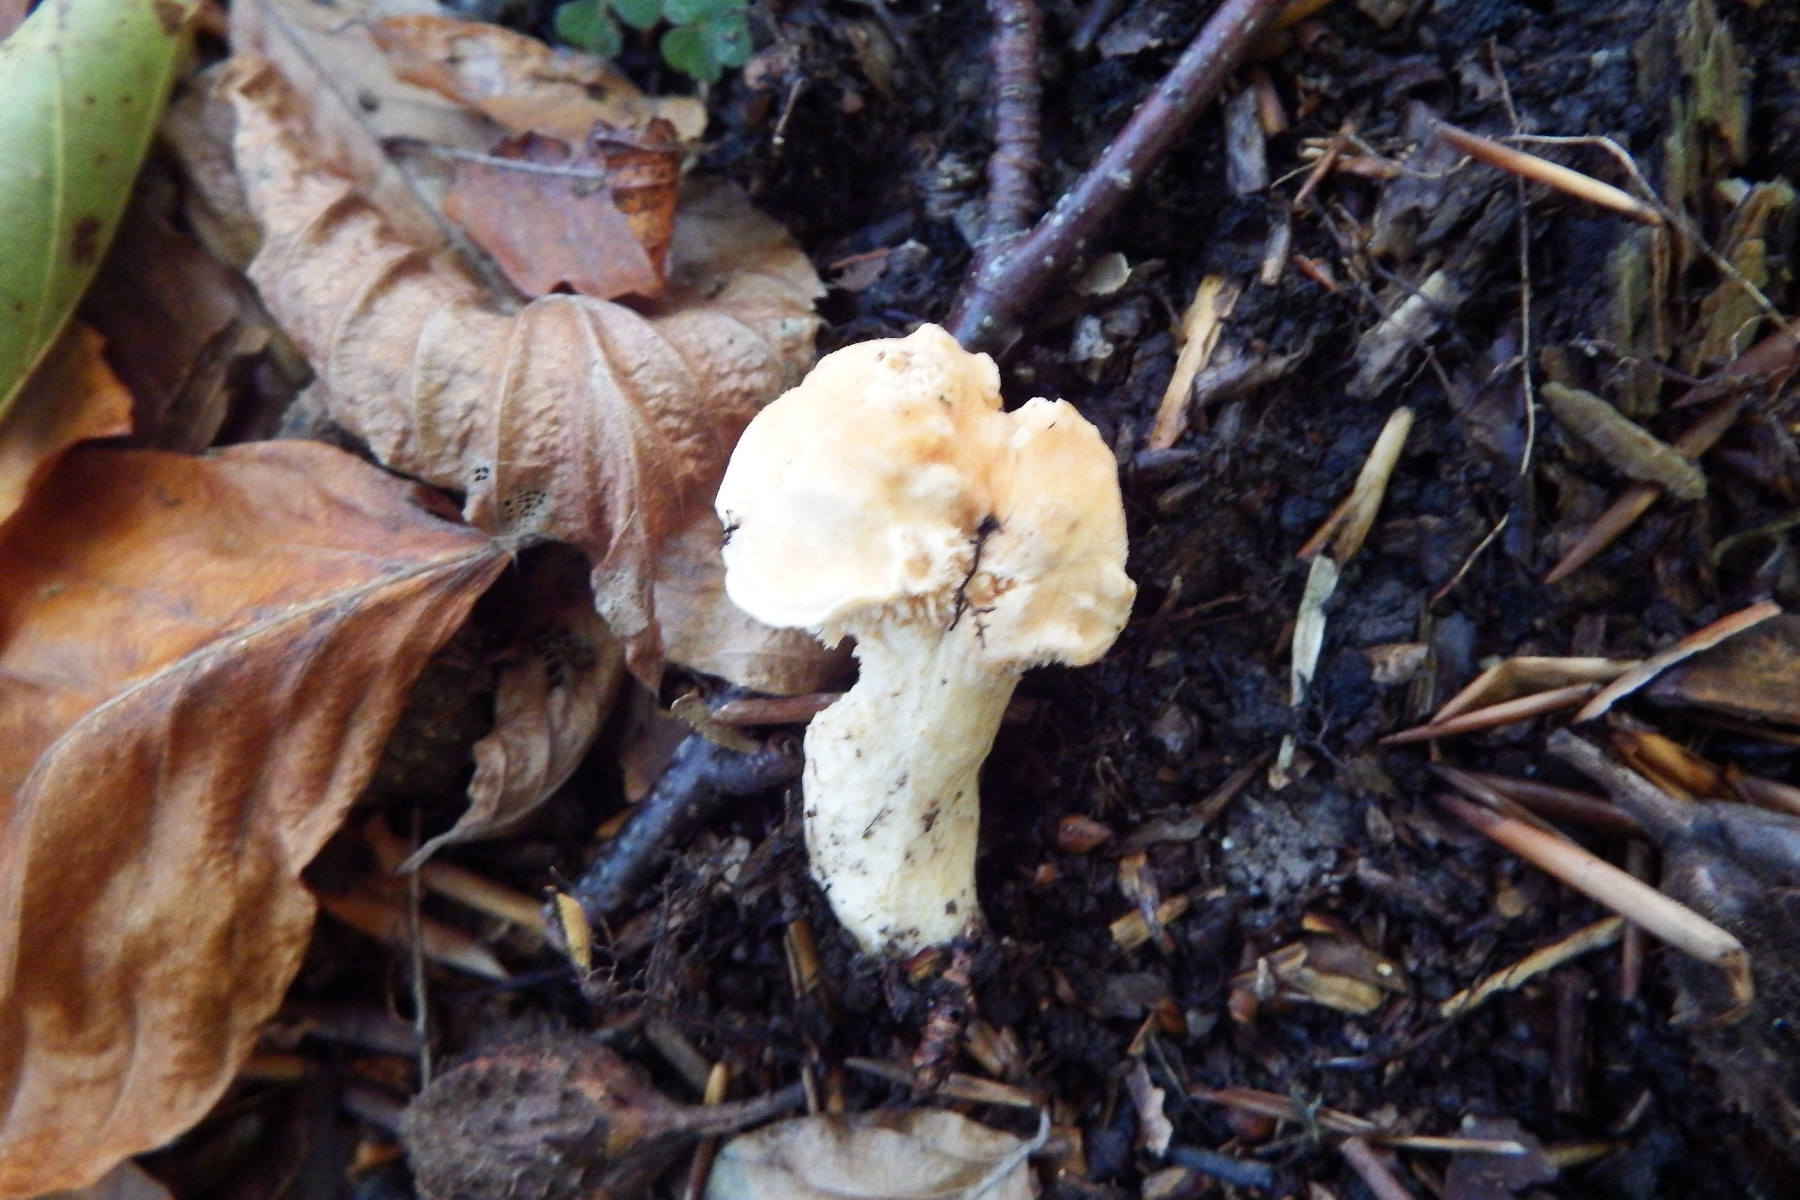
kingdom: Fungi
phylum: Basidiomycota
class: Agaricomycetes
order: Cantharellales
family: Hydnaceae
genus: Hydnum
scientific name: Hydnum
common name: pigsvamp
